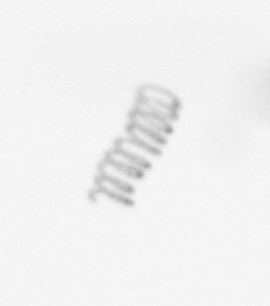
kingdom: Chromista
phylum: Ochrophyta
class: Bacillariophyceae
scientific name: Bacillariophyceae
